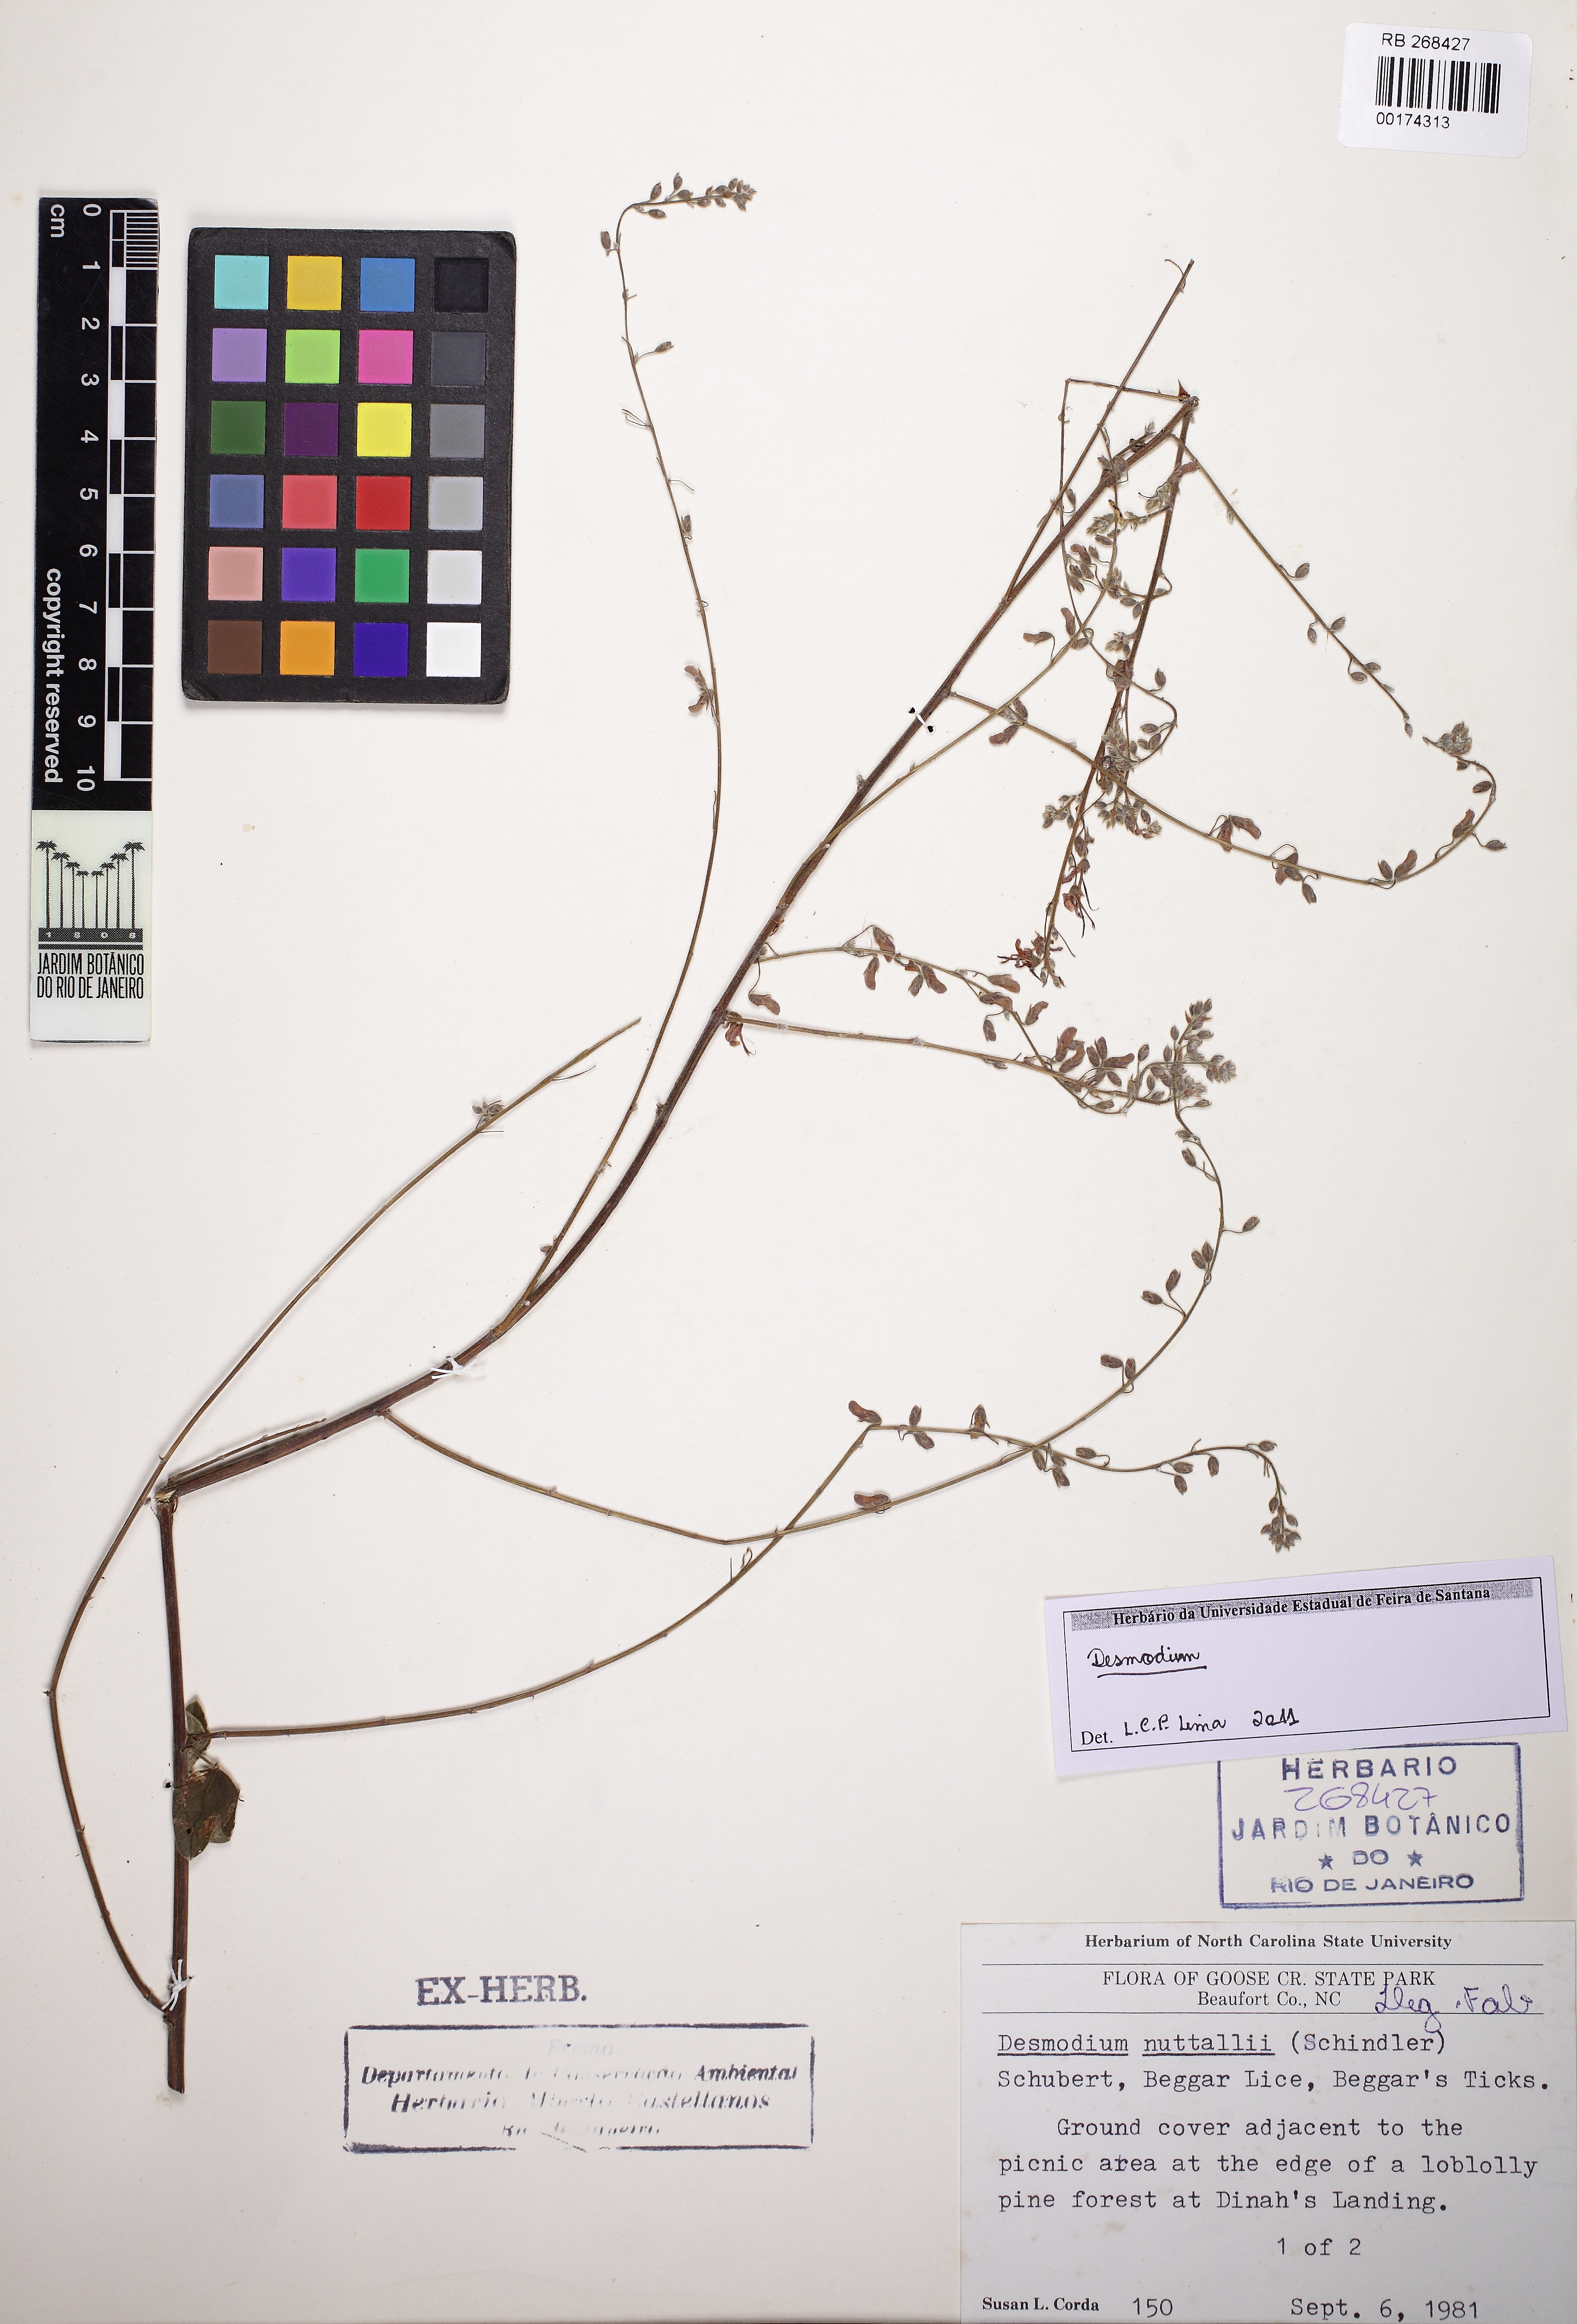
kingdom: Plantae
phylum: Tracheophyta
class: Magnoliopsida
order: Fabales
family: Fabaceae
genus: Desmodium
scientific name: Desmodium
